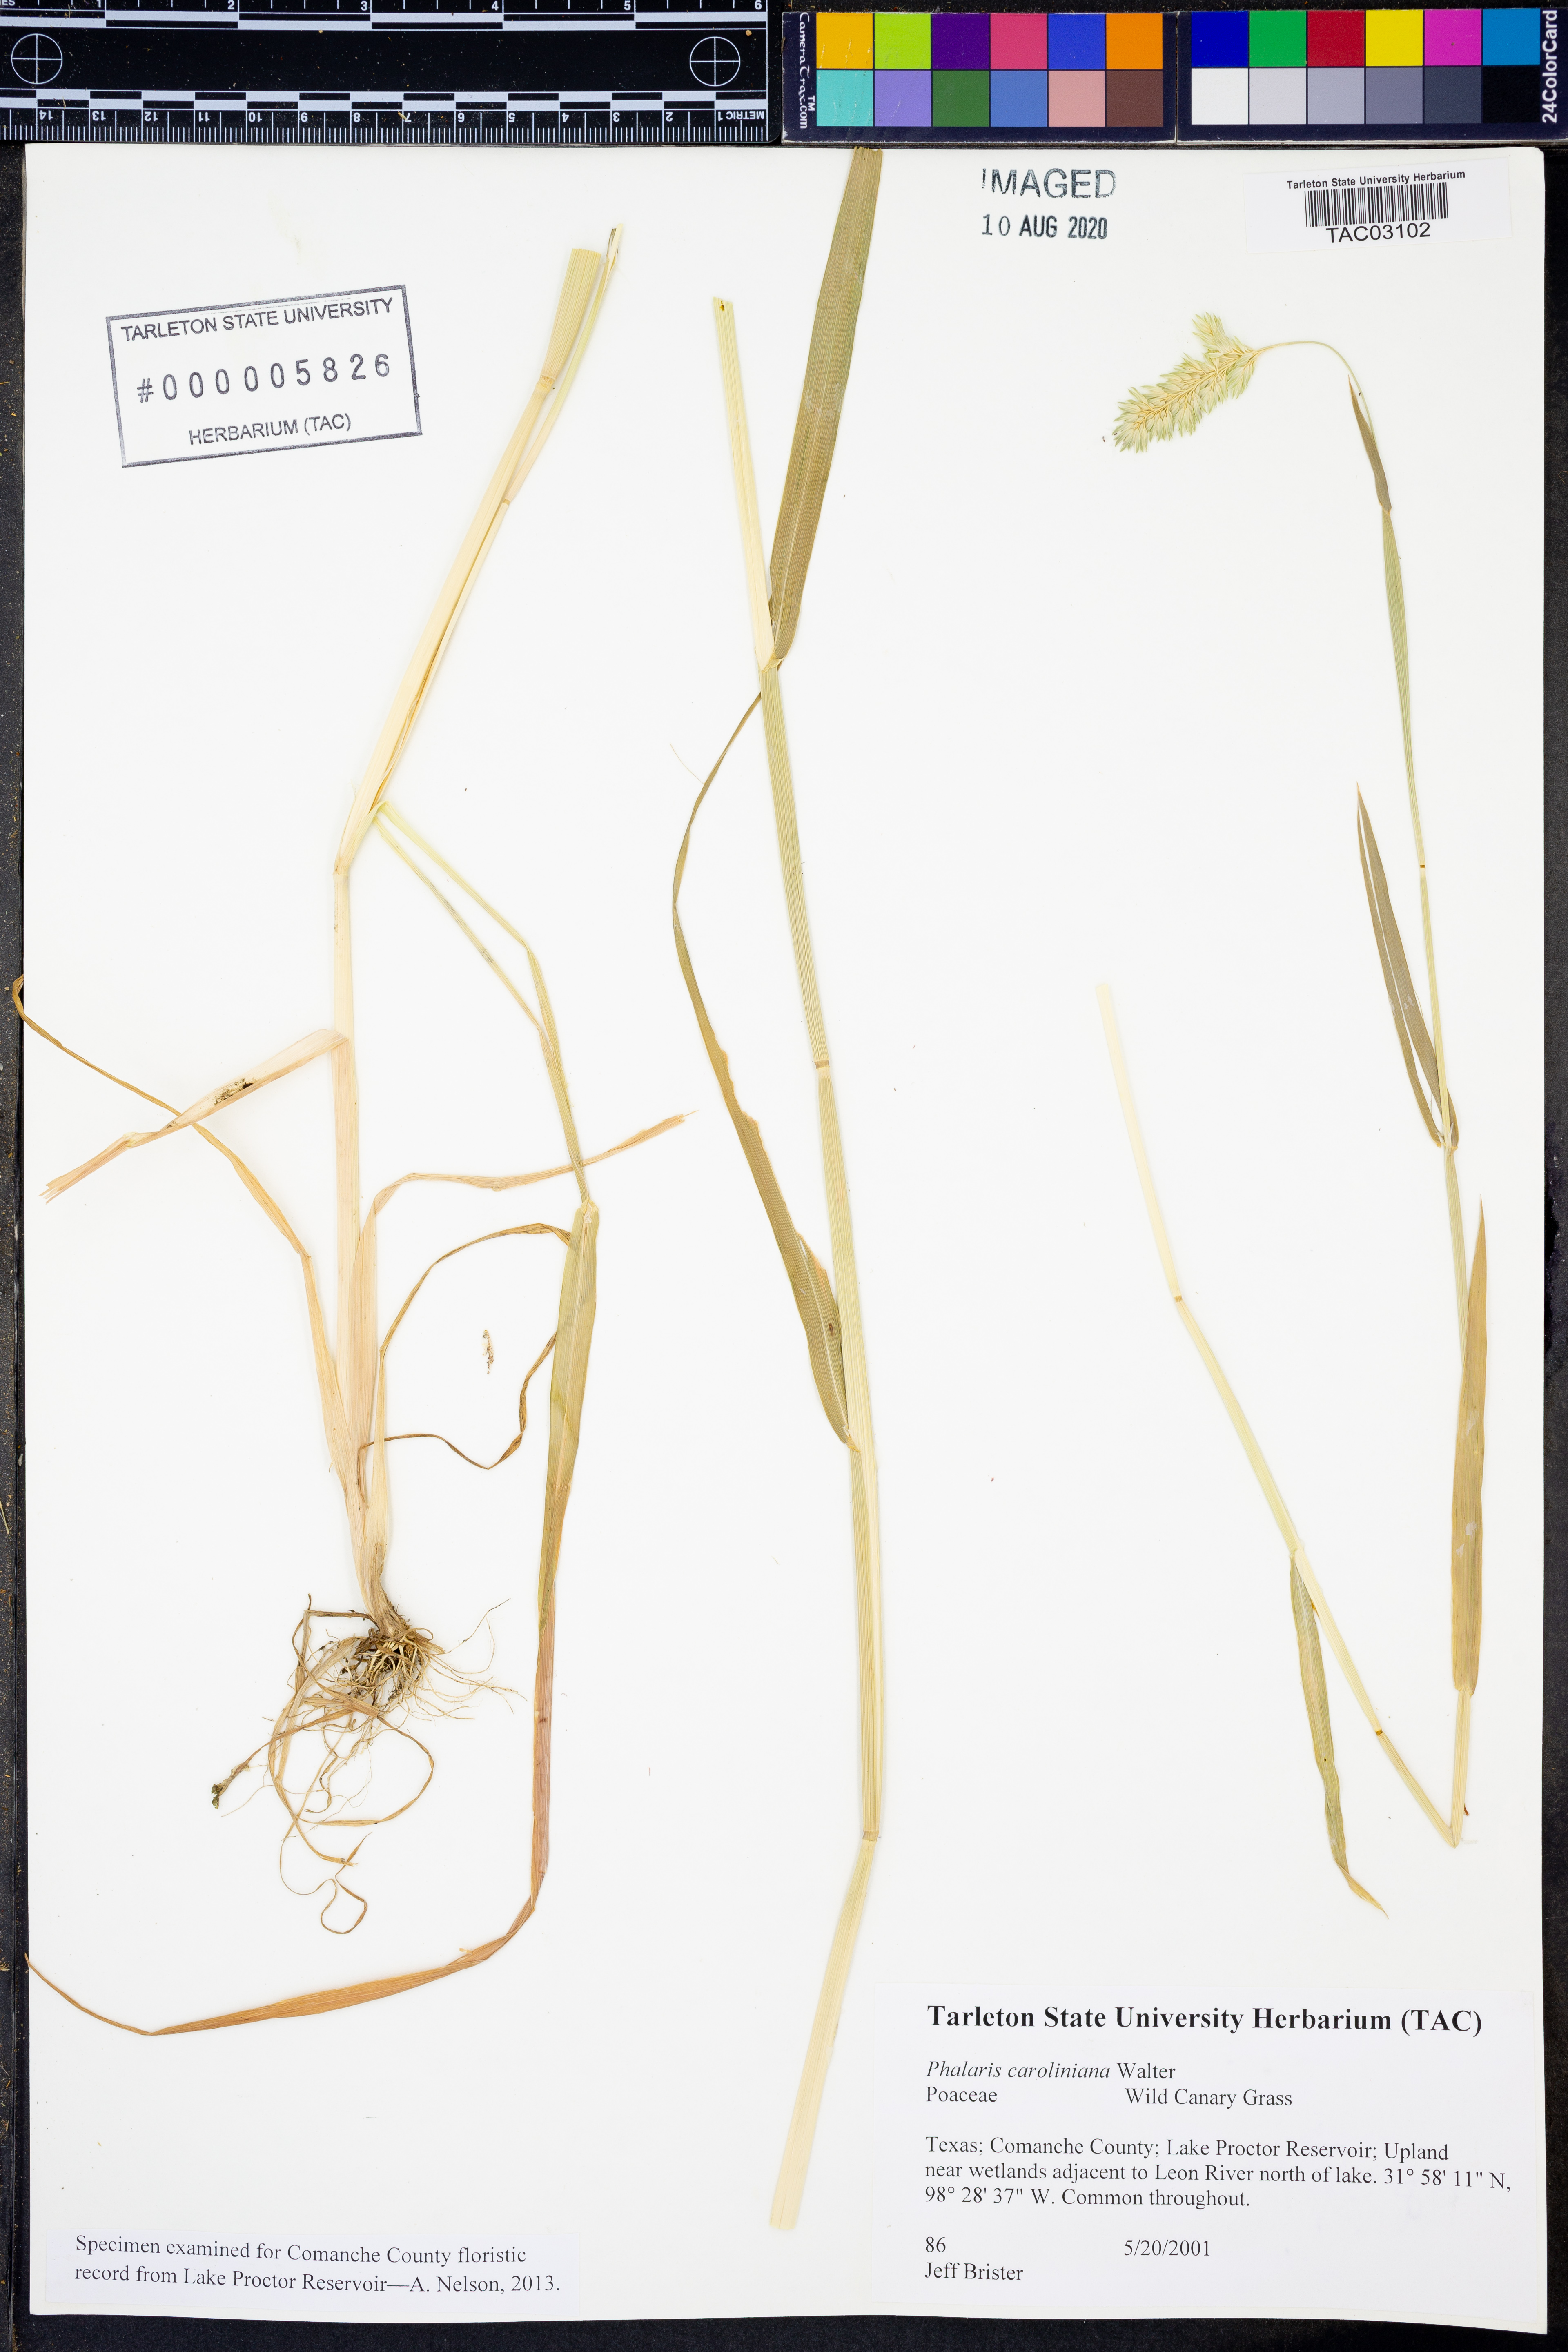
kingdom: Plantae
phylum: Tracheophyta
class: Liliopsida
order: Poales
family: Poaceae
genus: Phalaris
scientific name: Phalaris caroliniana
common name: May grass
